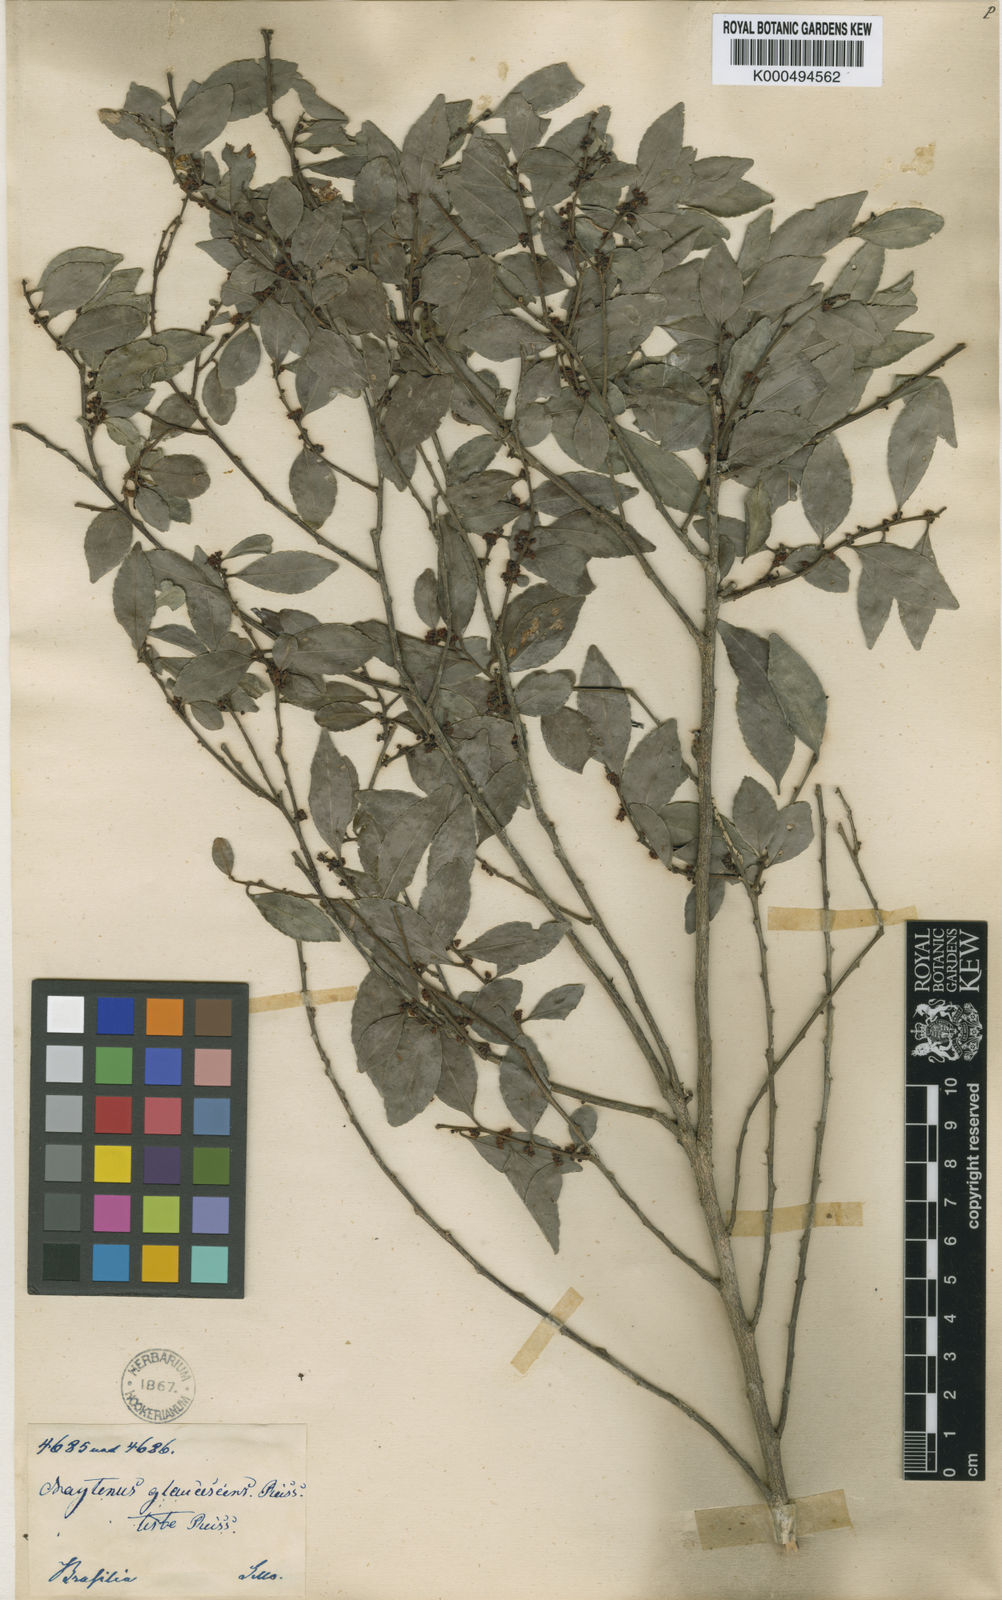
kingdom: Plantae
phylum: Tracheophyta
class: Magnoliopsida
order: Celastrales
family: Celastraceae
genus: Monteverdia
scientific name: Monteverdia glaucescens
